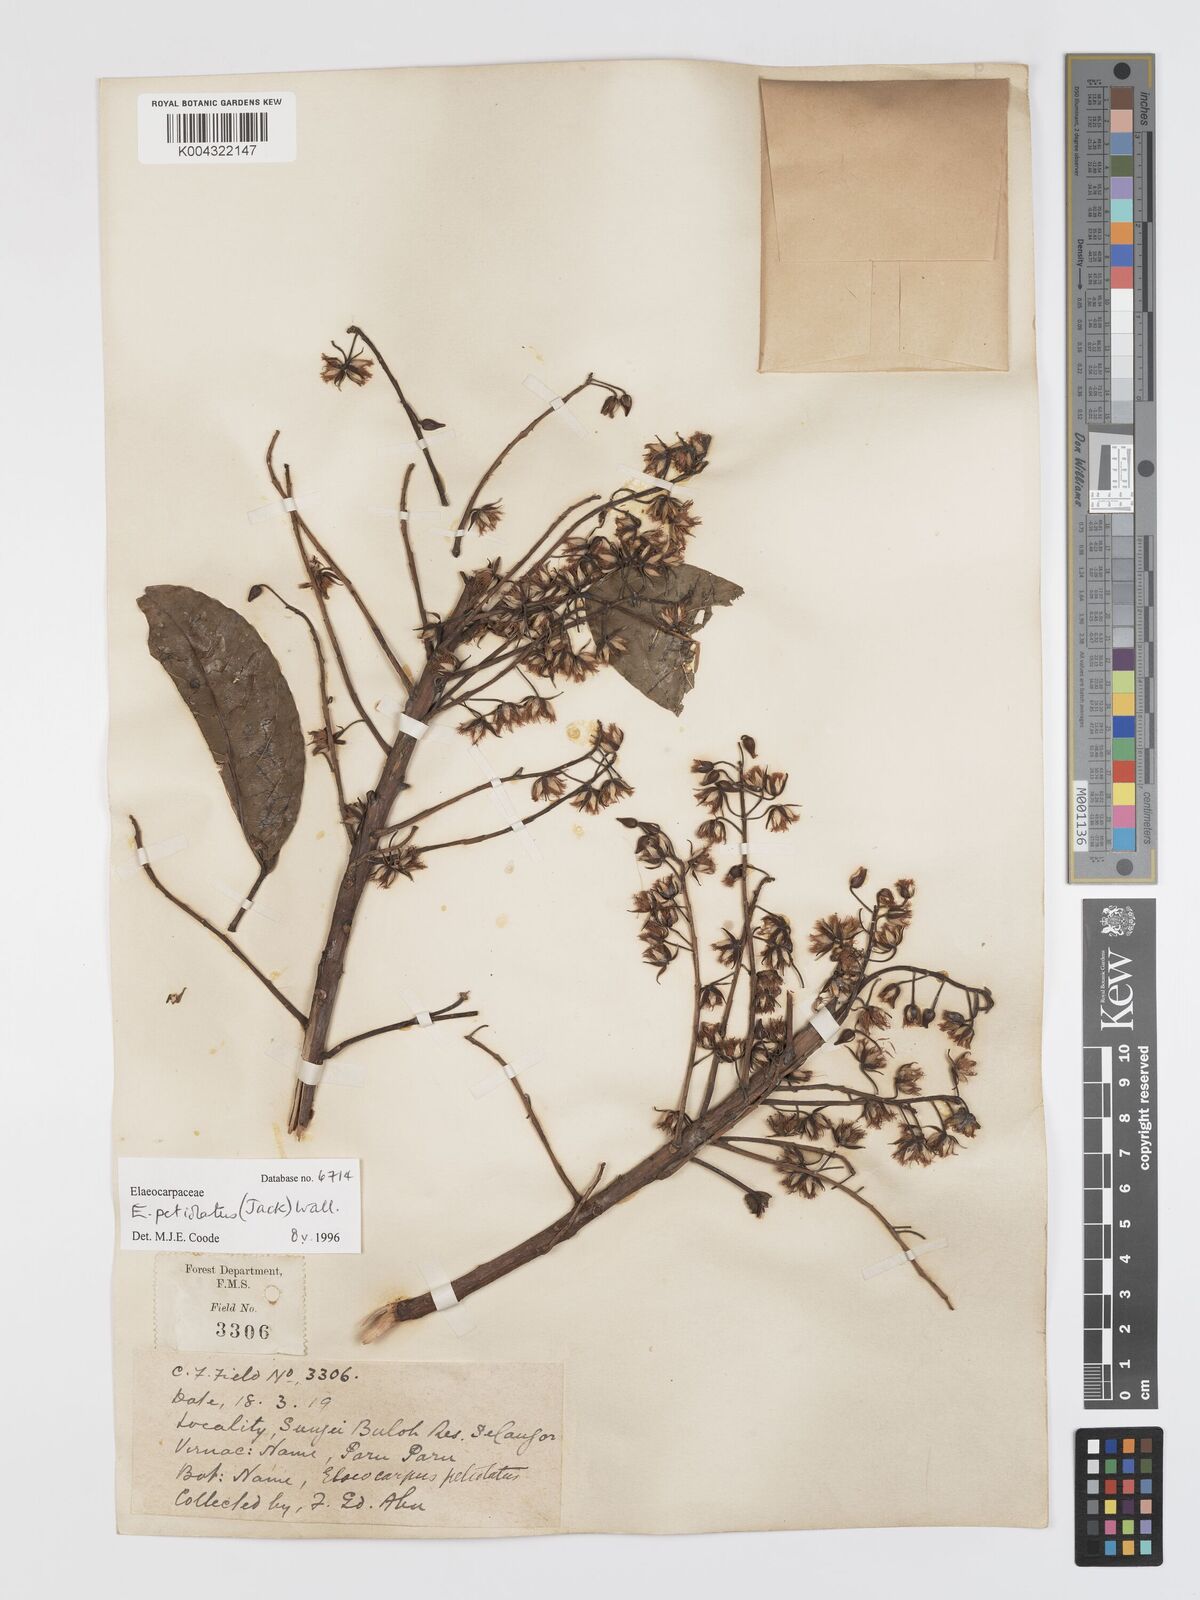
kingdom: Plantae
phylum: Tracheophyta
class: Magnoliopsida
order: Oxalidales
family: Elaeocarpaceae
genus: Elaeocarpus
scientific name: Elaeocarpus
